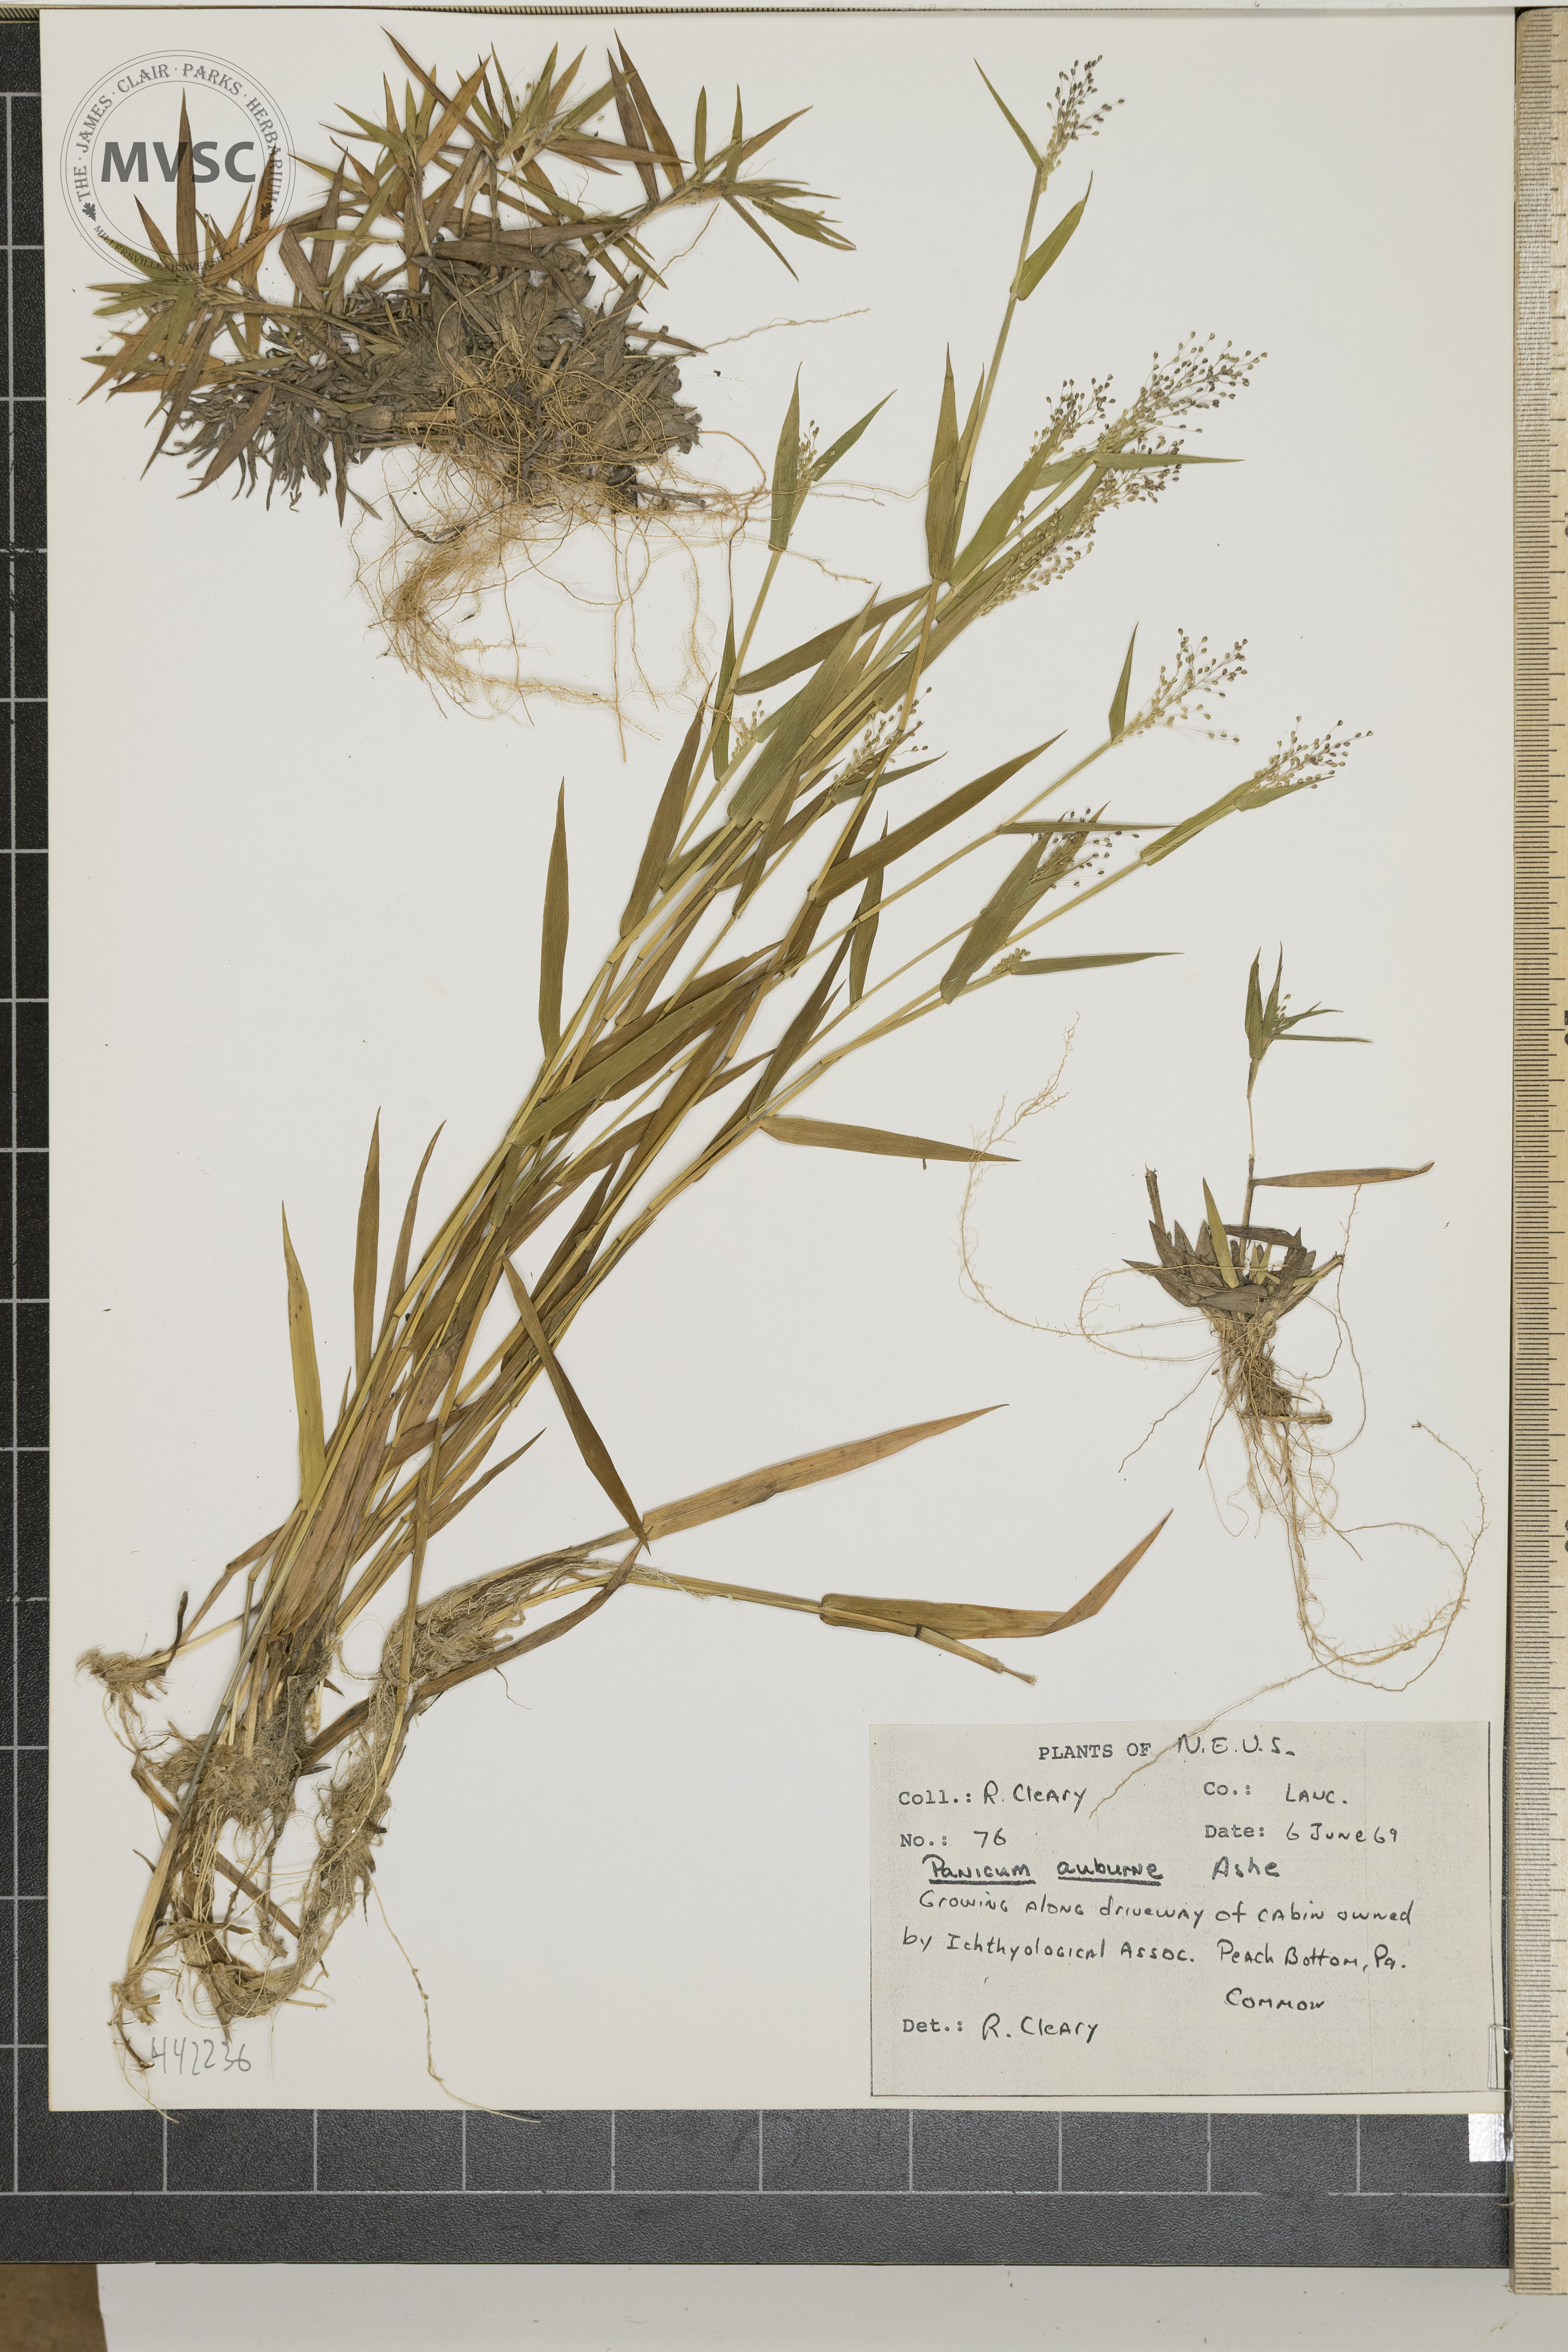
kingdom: Plantae
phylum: Tracheophyta
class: Liliopsida
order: Poales
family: Poaceae
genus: Dichanthelium
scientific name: Dichanthelium acuminatum
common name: Hairy panic grass
